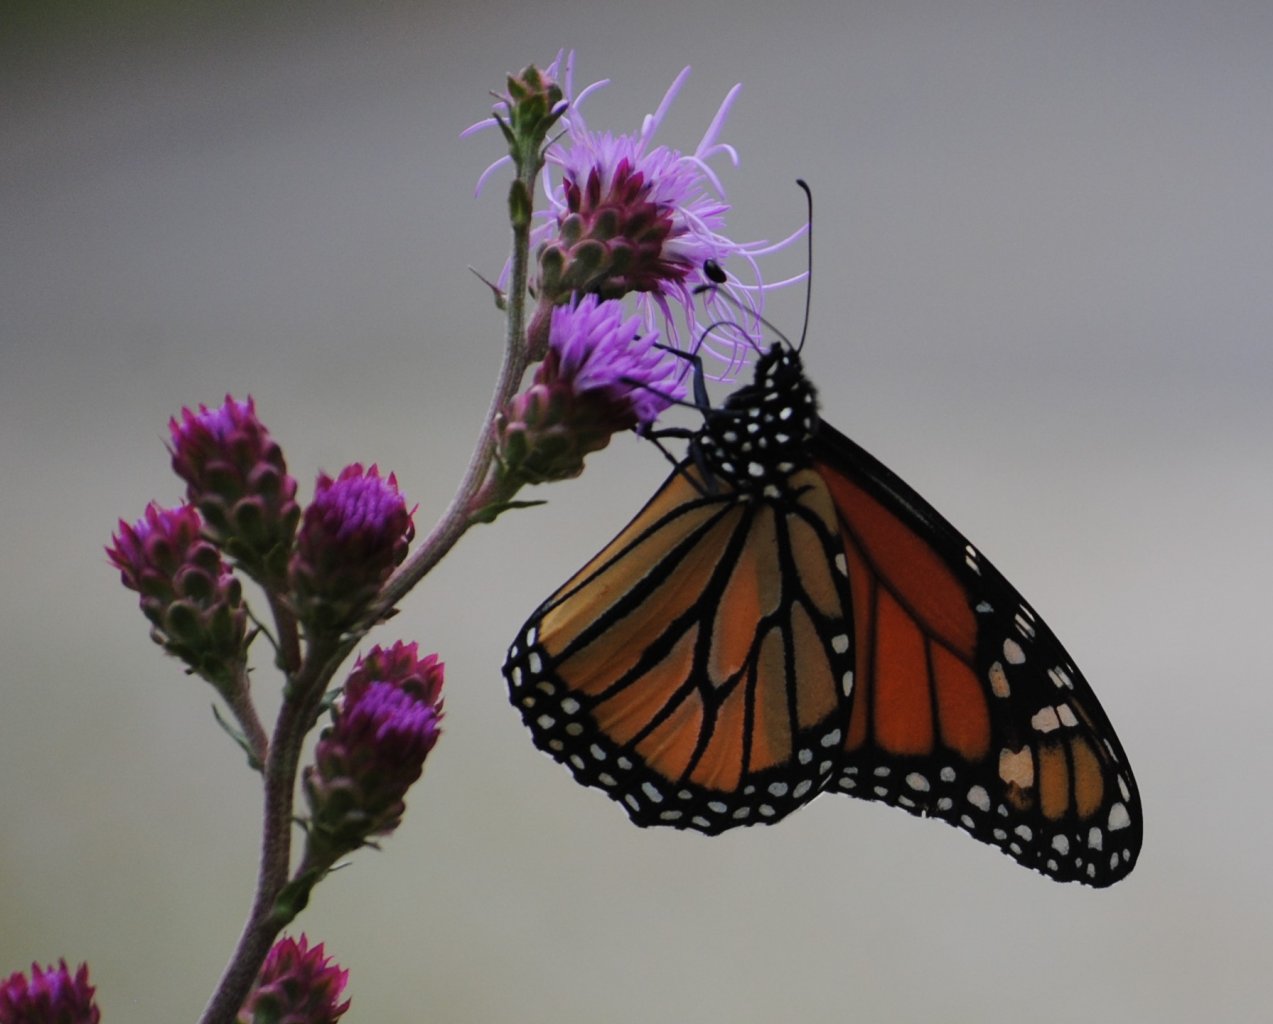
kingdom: Animalia
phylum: Arthropoda
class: Insecta
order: Lepidoptera
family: Nymphalidae
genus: Danaus
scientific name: Danaus plexippus
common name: Monarch
